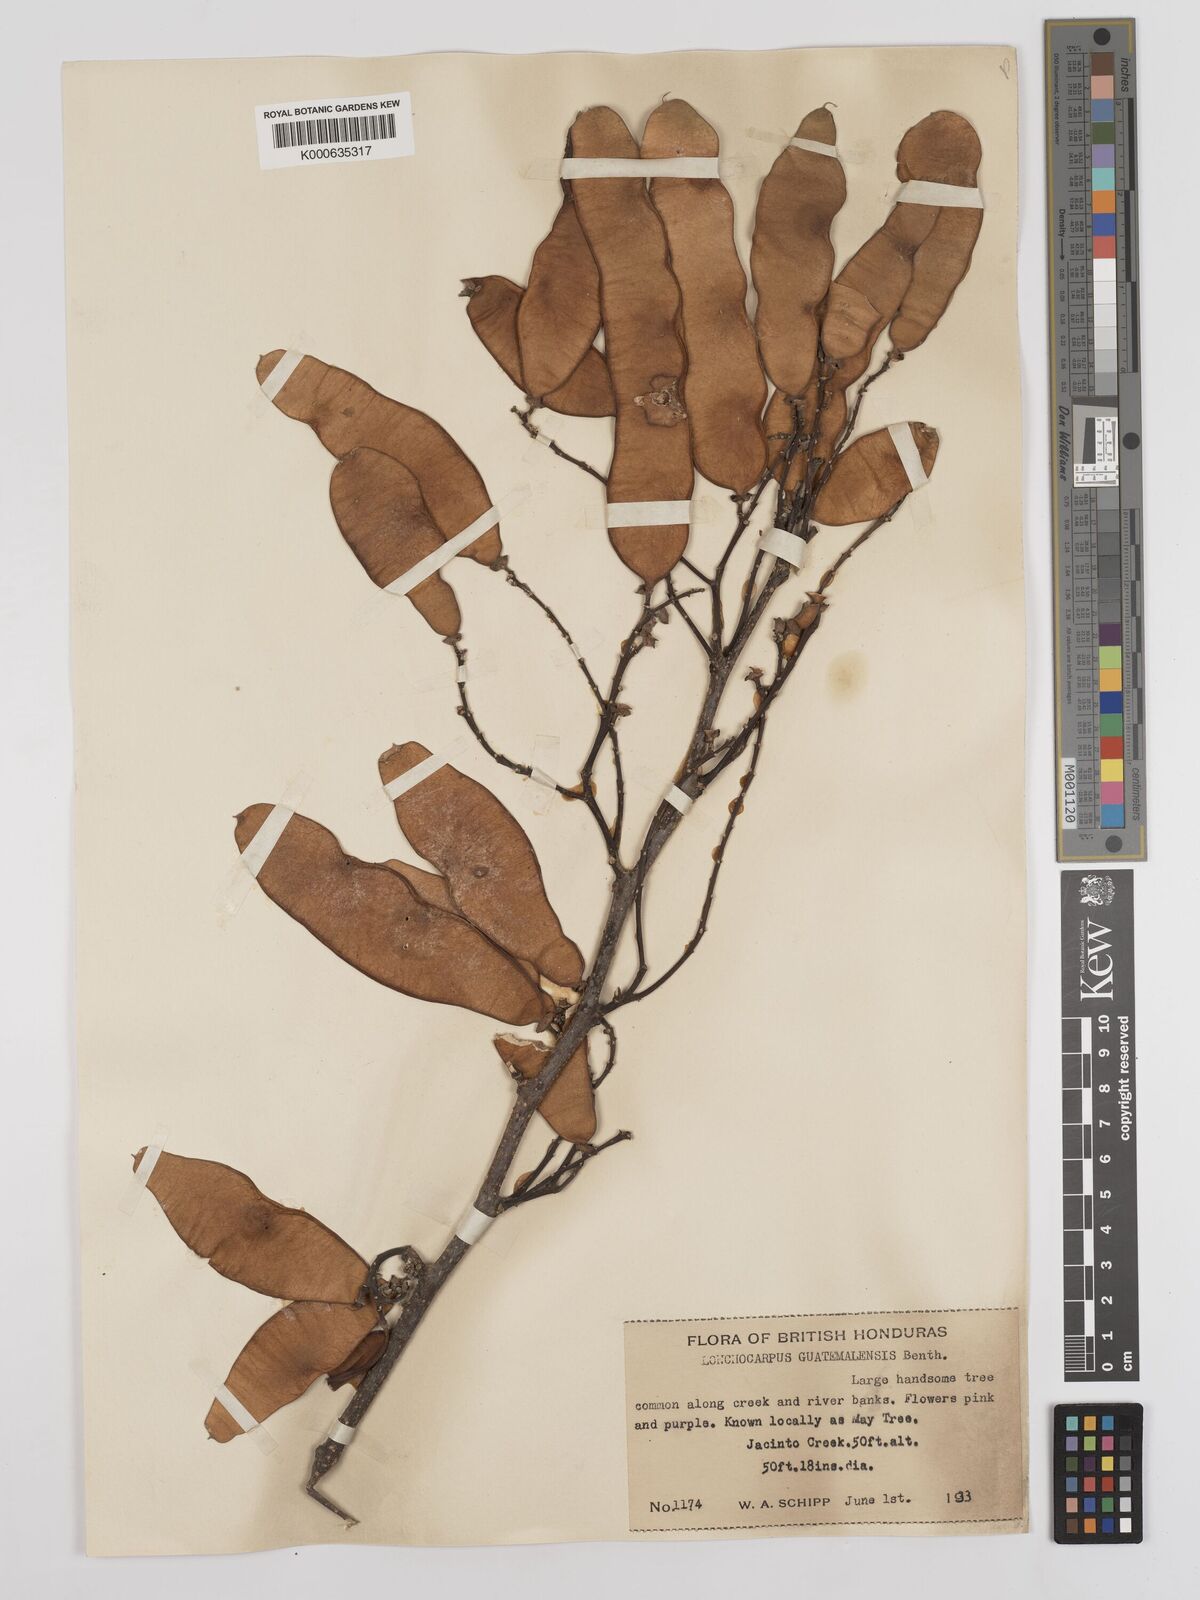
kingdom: Plantae
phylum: Tracheophyta
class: Magnoliopsida
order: Fabales
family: Fabaceae
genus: Lonchocarpus
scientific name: Lonchocarpus guatemalensis
